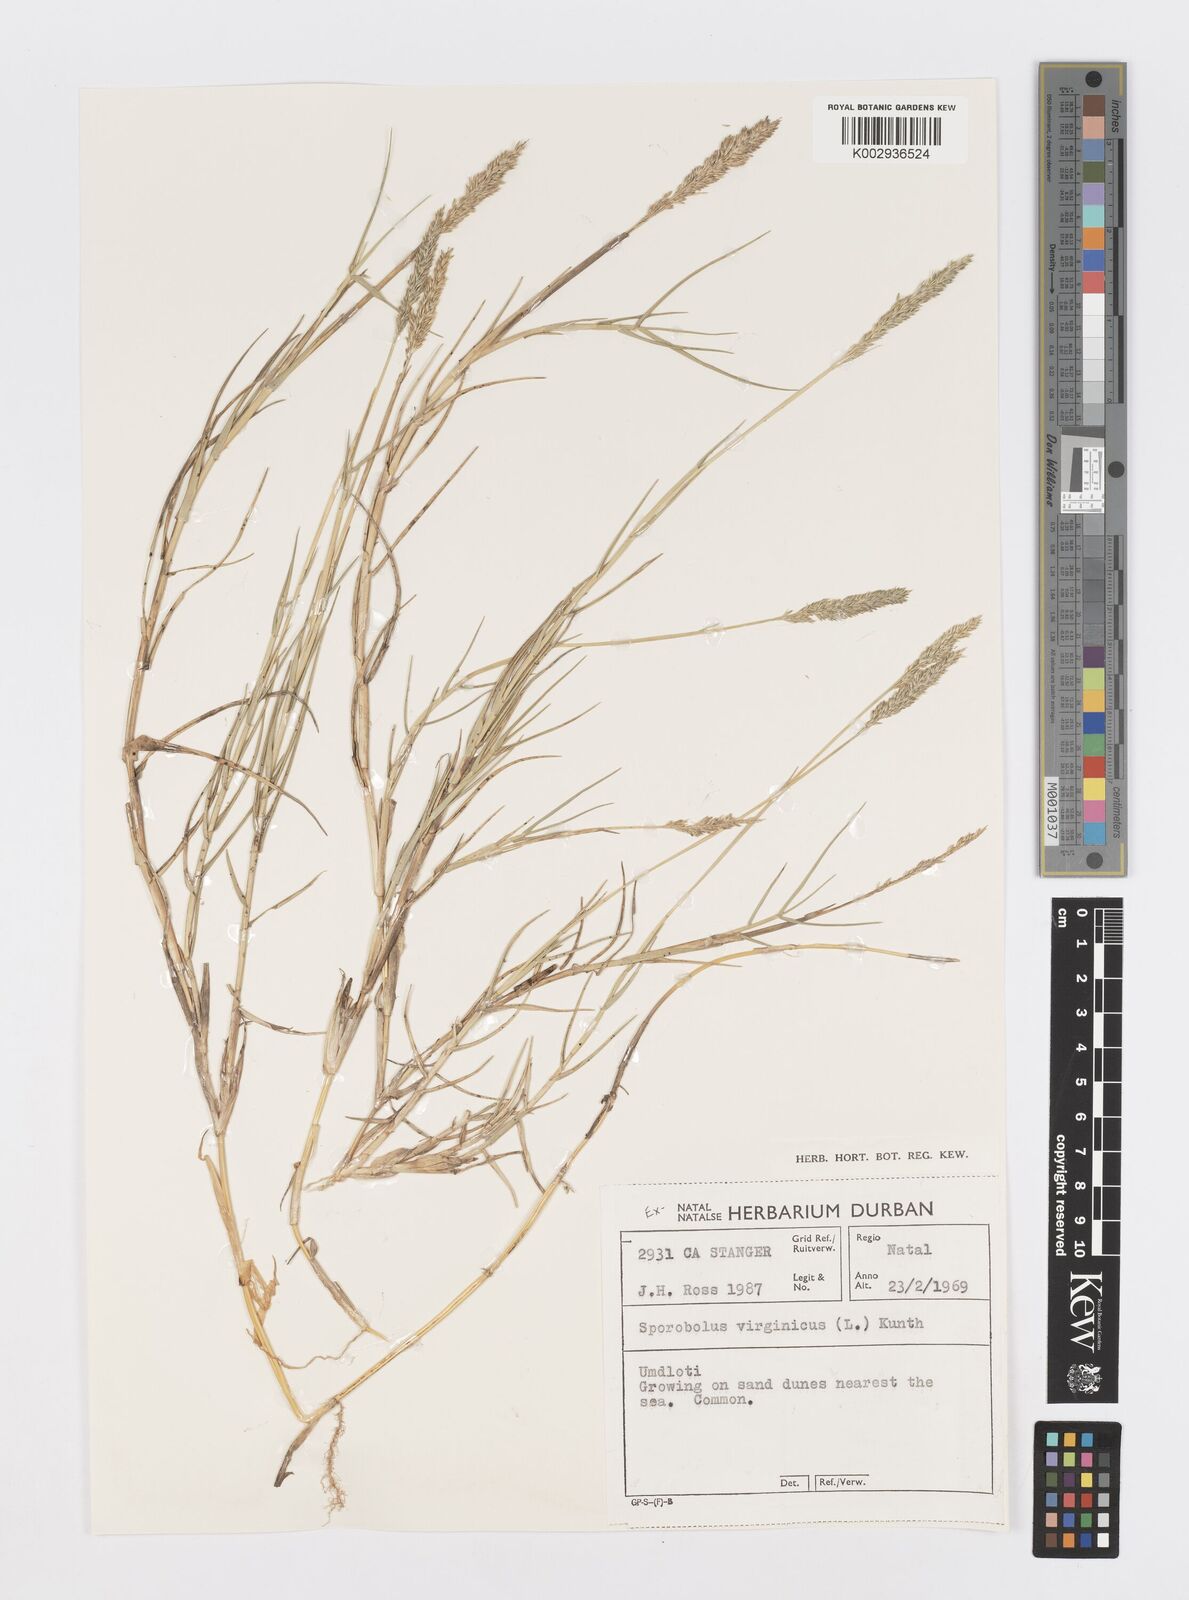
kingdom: Plantae
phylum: Tracheophyta
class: Liliopsida
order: Poales
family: Poaceae
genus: Sporobolus
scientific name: Sporobolus virginicus
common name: Beach dropseed
